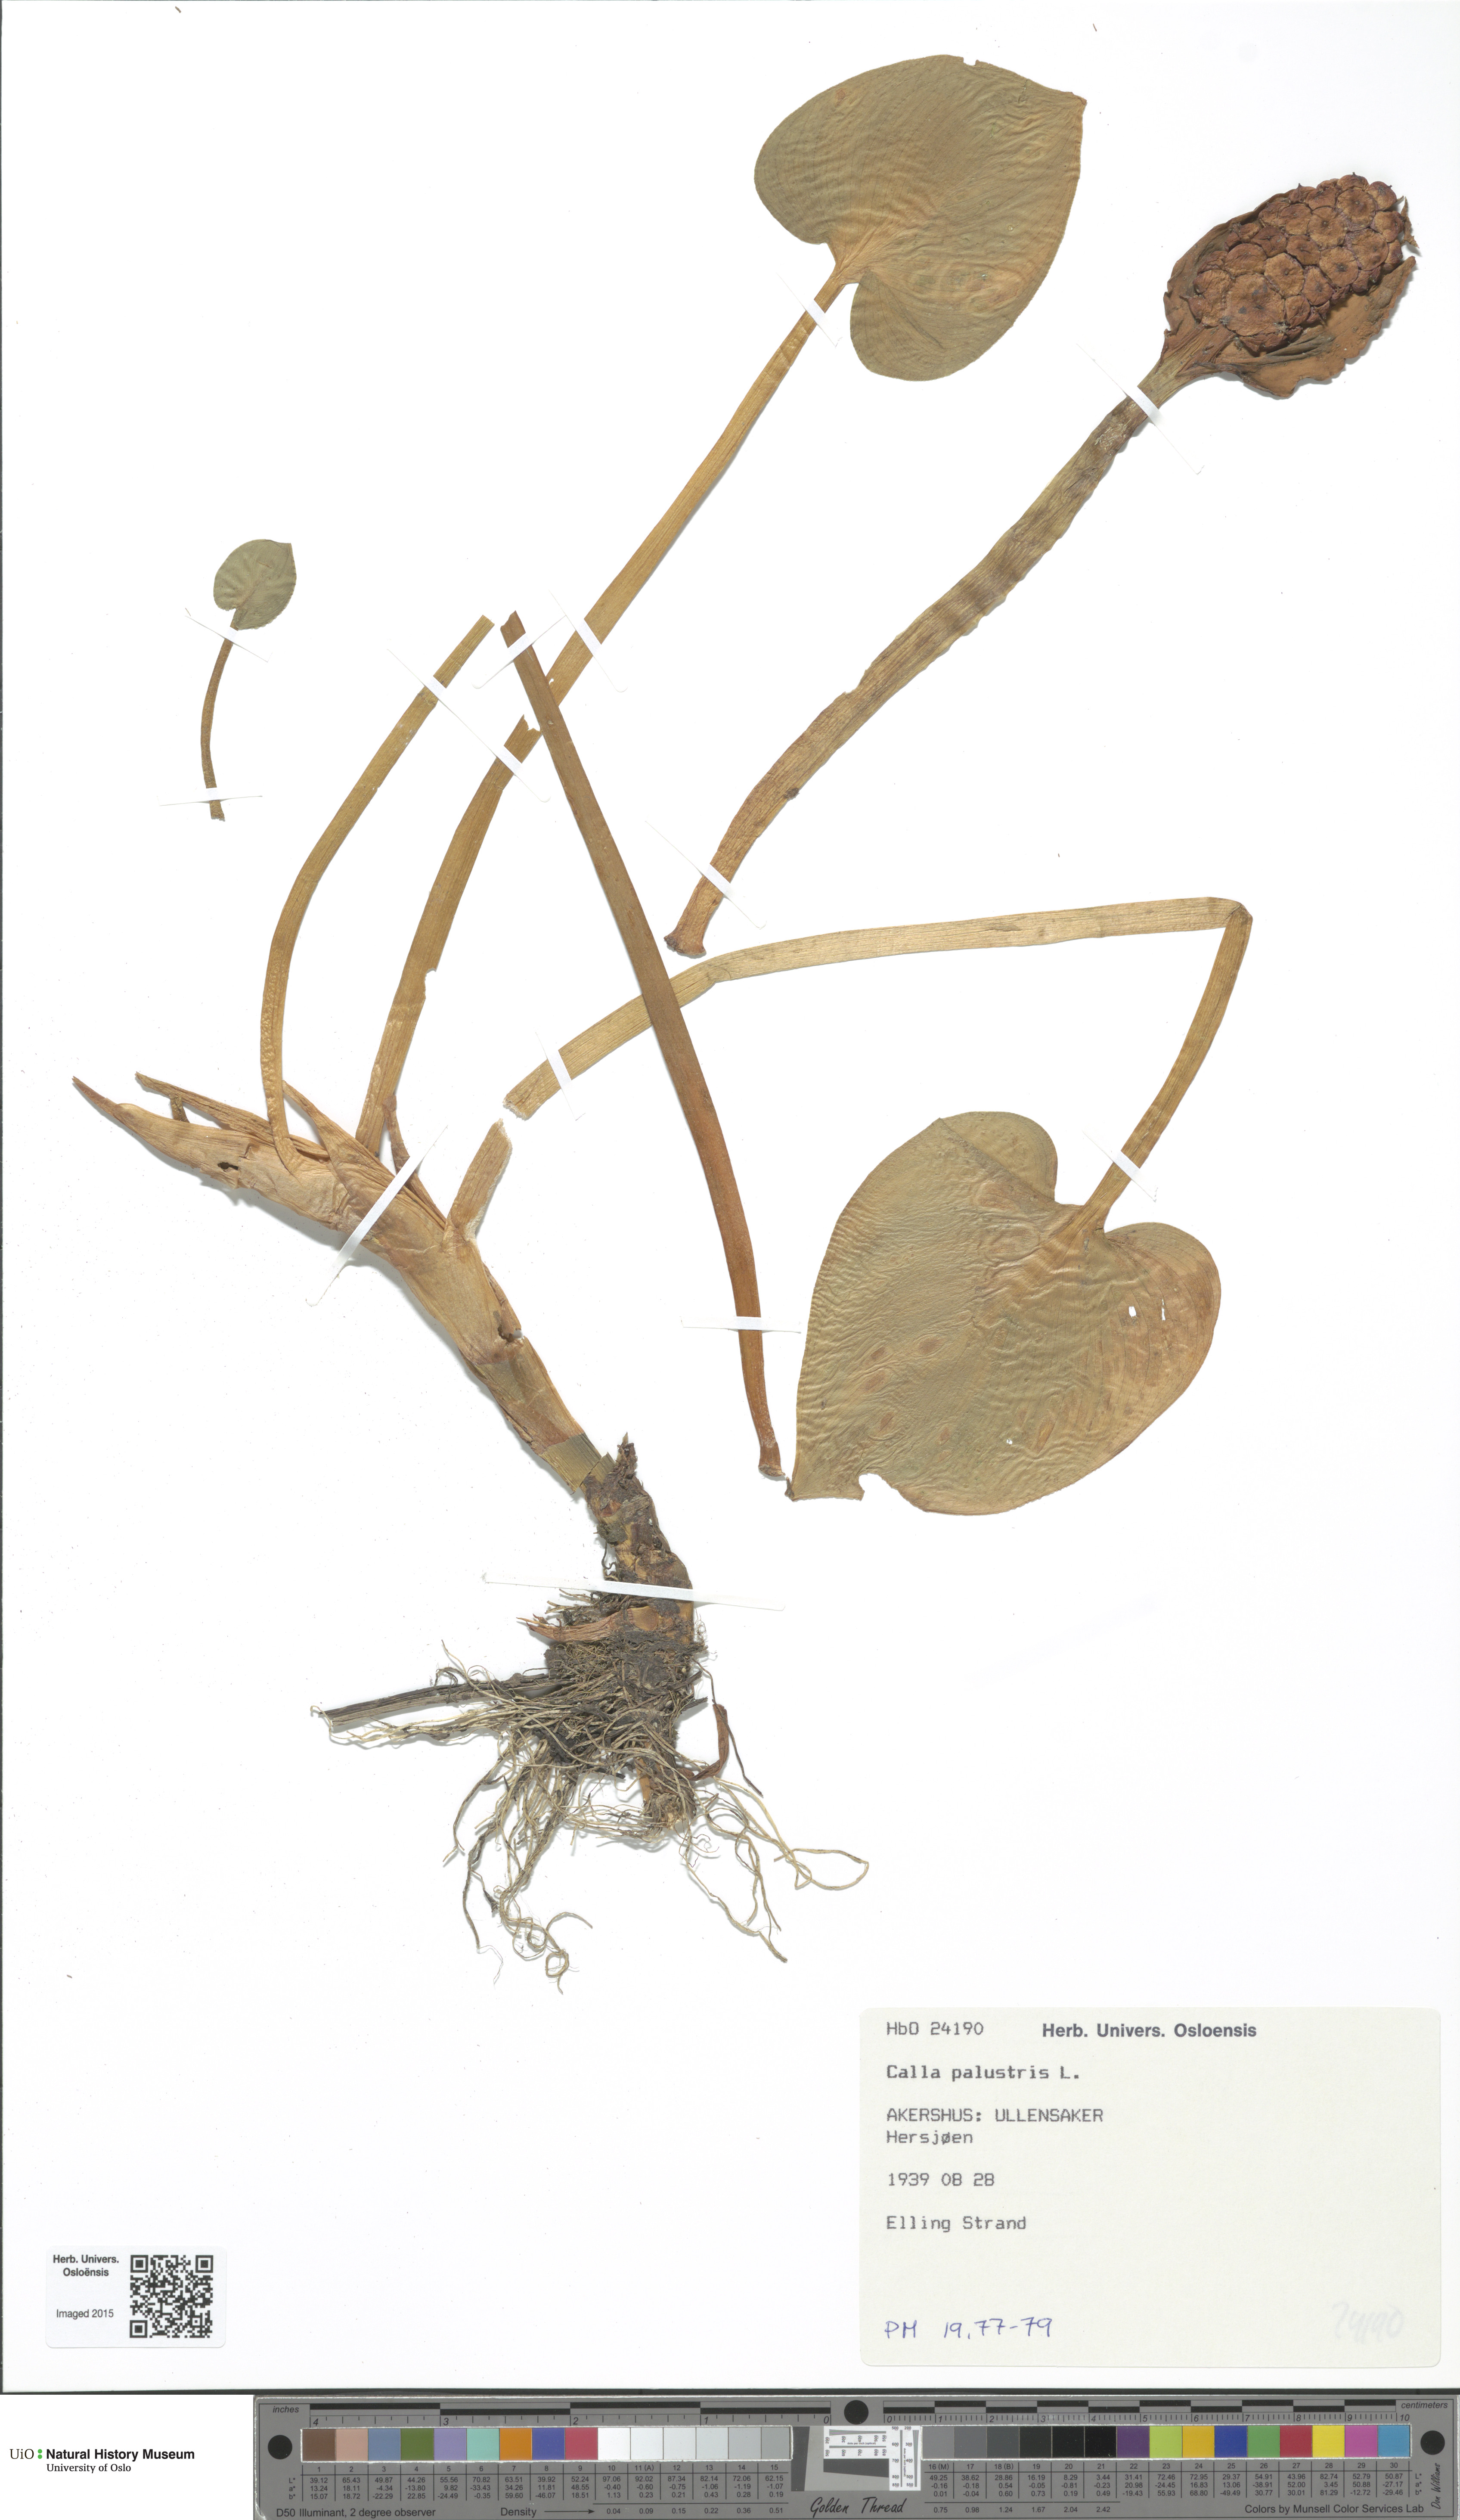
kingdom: Plantae
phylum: Tracheophyta
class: Liliopsida
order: Alismatales
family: Araceae
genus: Calla
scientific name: Calla palustris
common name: Bog arum
